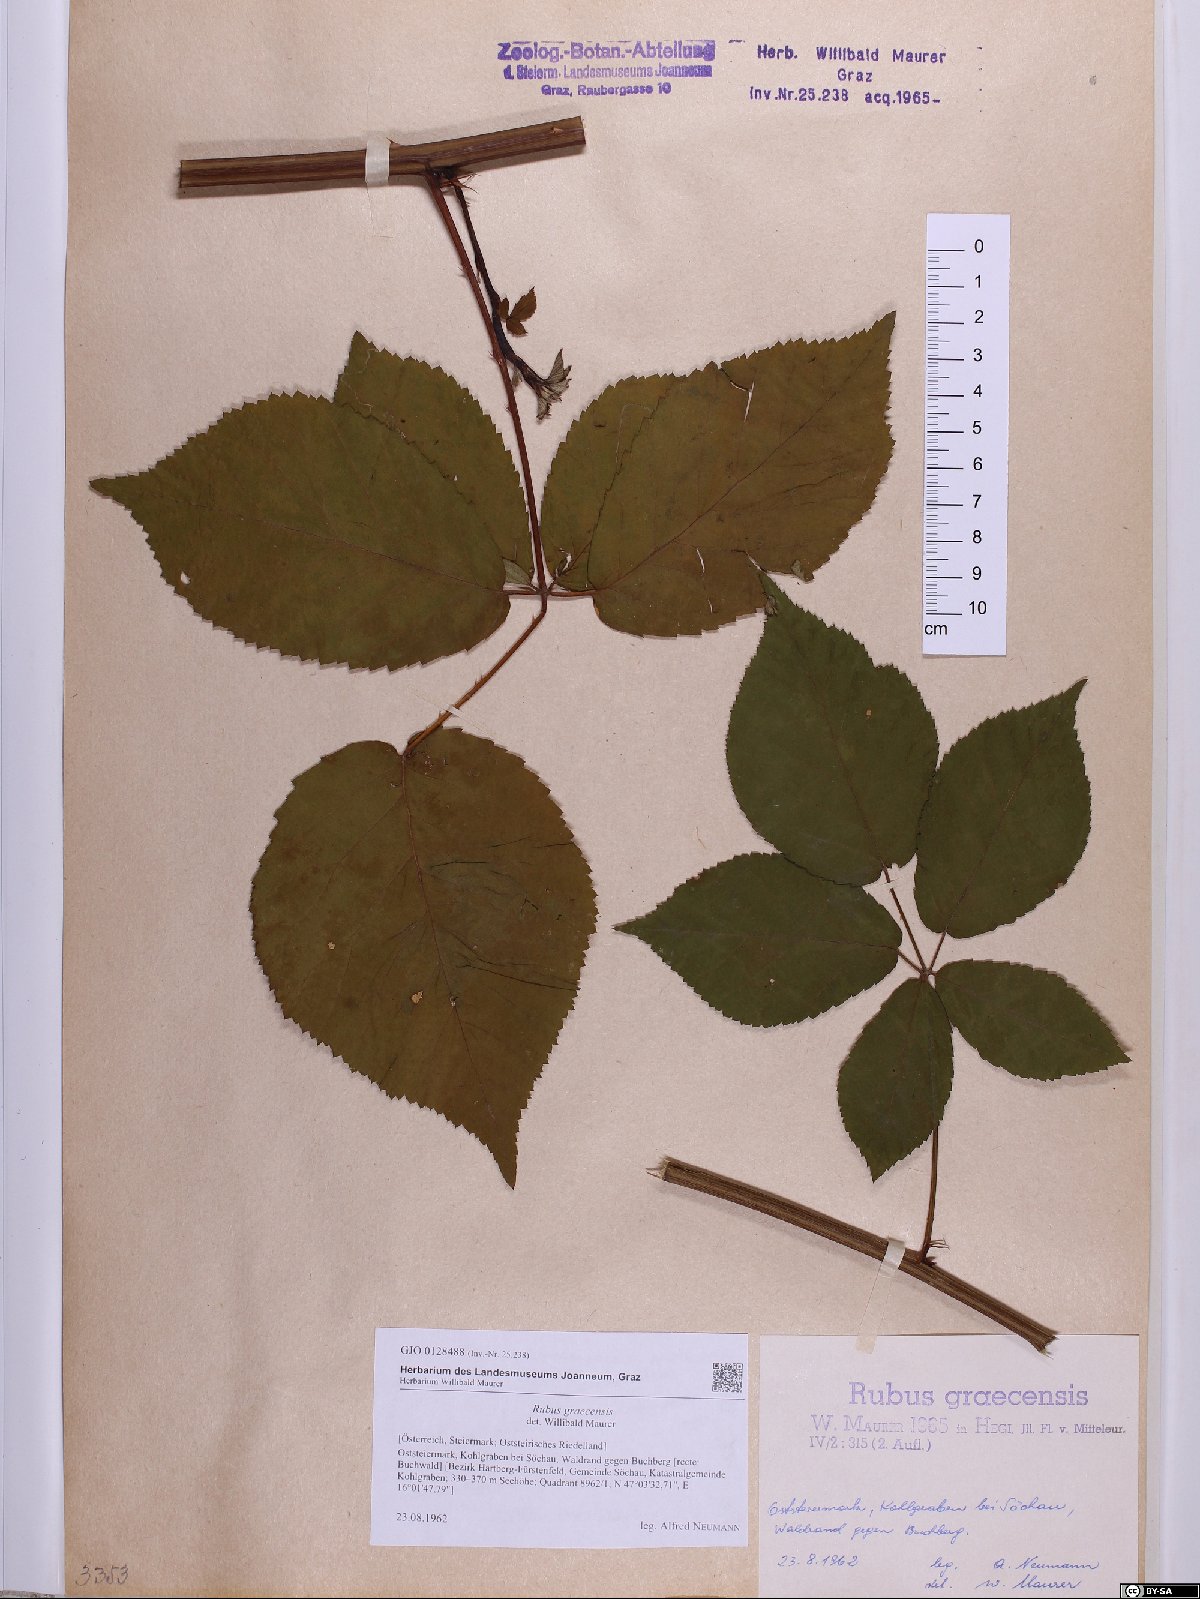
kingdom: Plantae
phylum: Tracheophyta
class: Magnoliopsida
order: Rosales
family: Rosaceae
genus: Rubus
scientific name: Rubus graecensis
